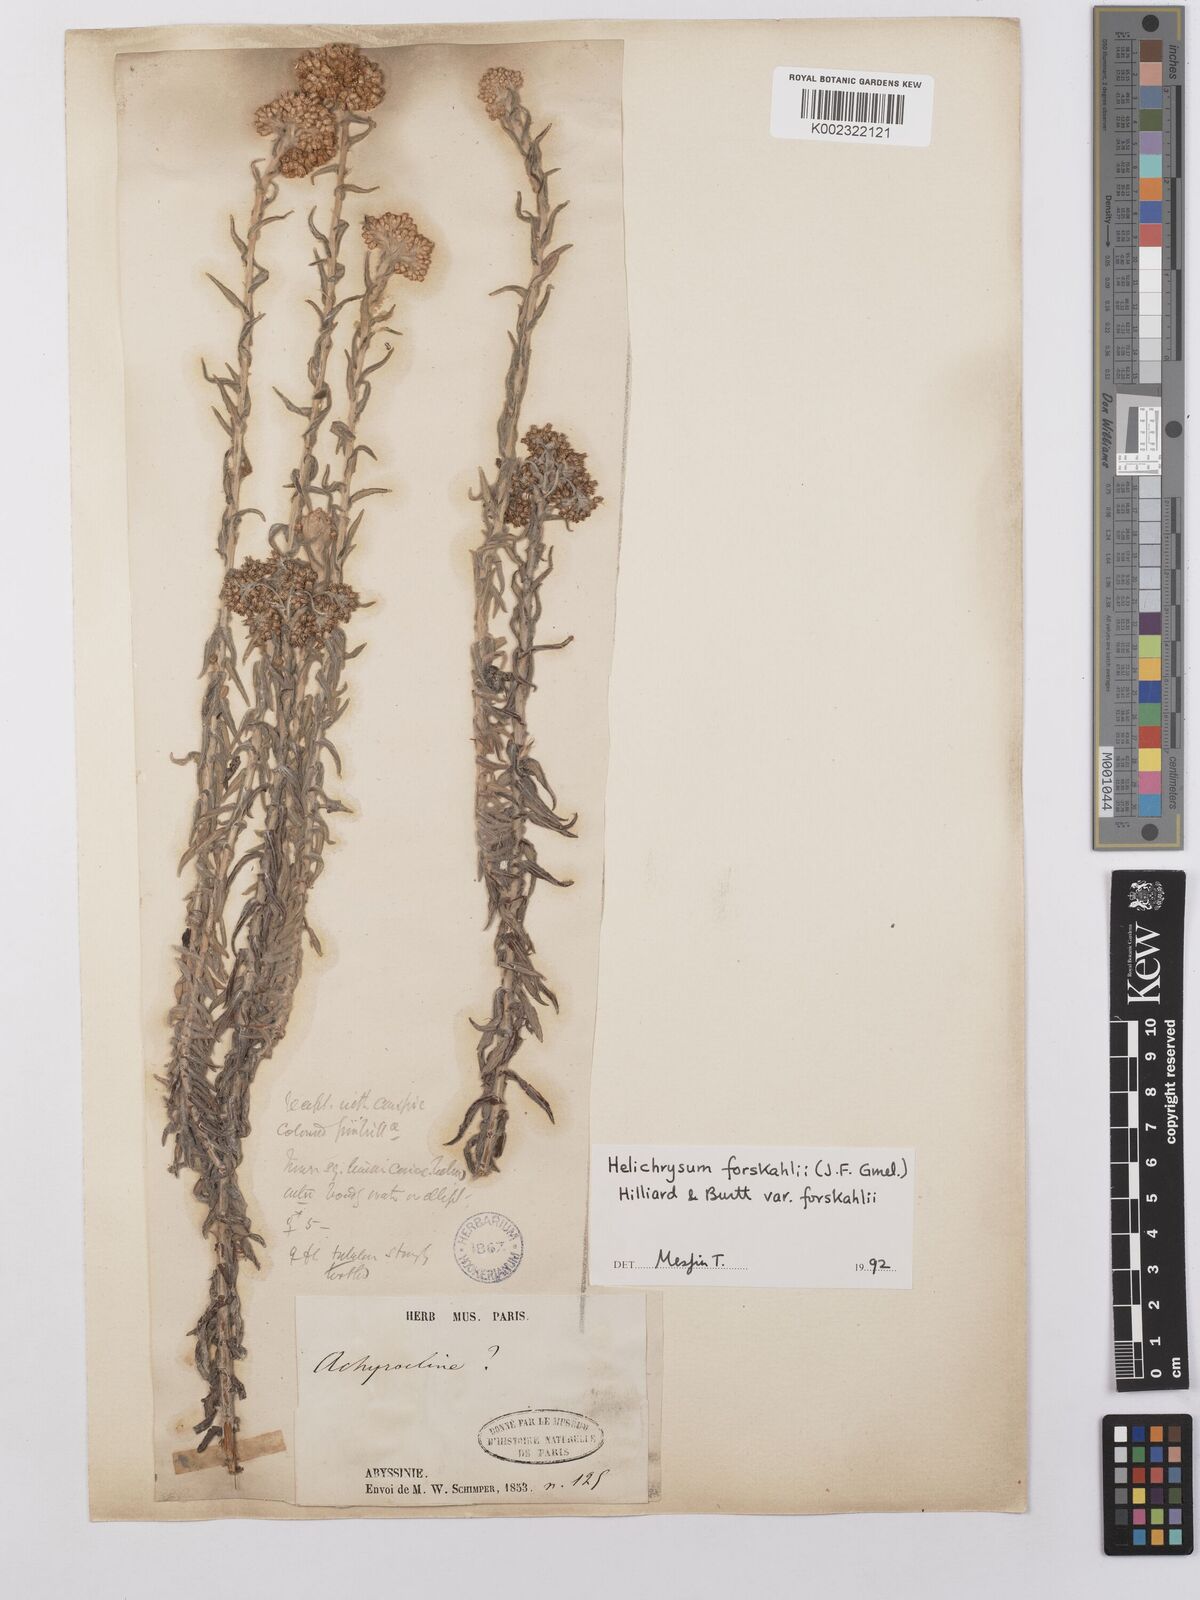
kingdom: Plantae
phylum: Tracheophyta
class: Magnoliopsida
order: Asterales
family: Asteraceae
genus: Helichrysum
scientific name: Helichrysum forskahlii
